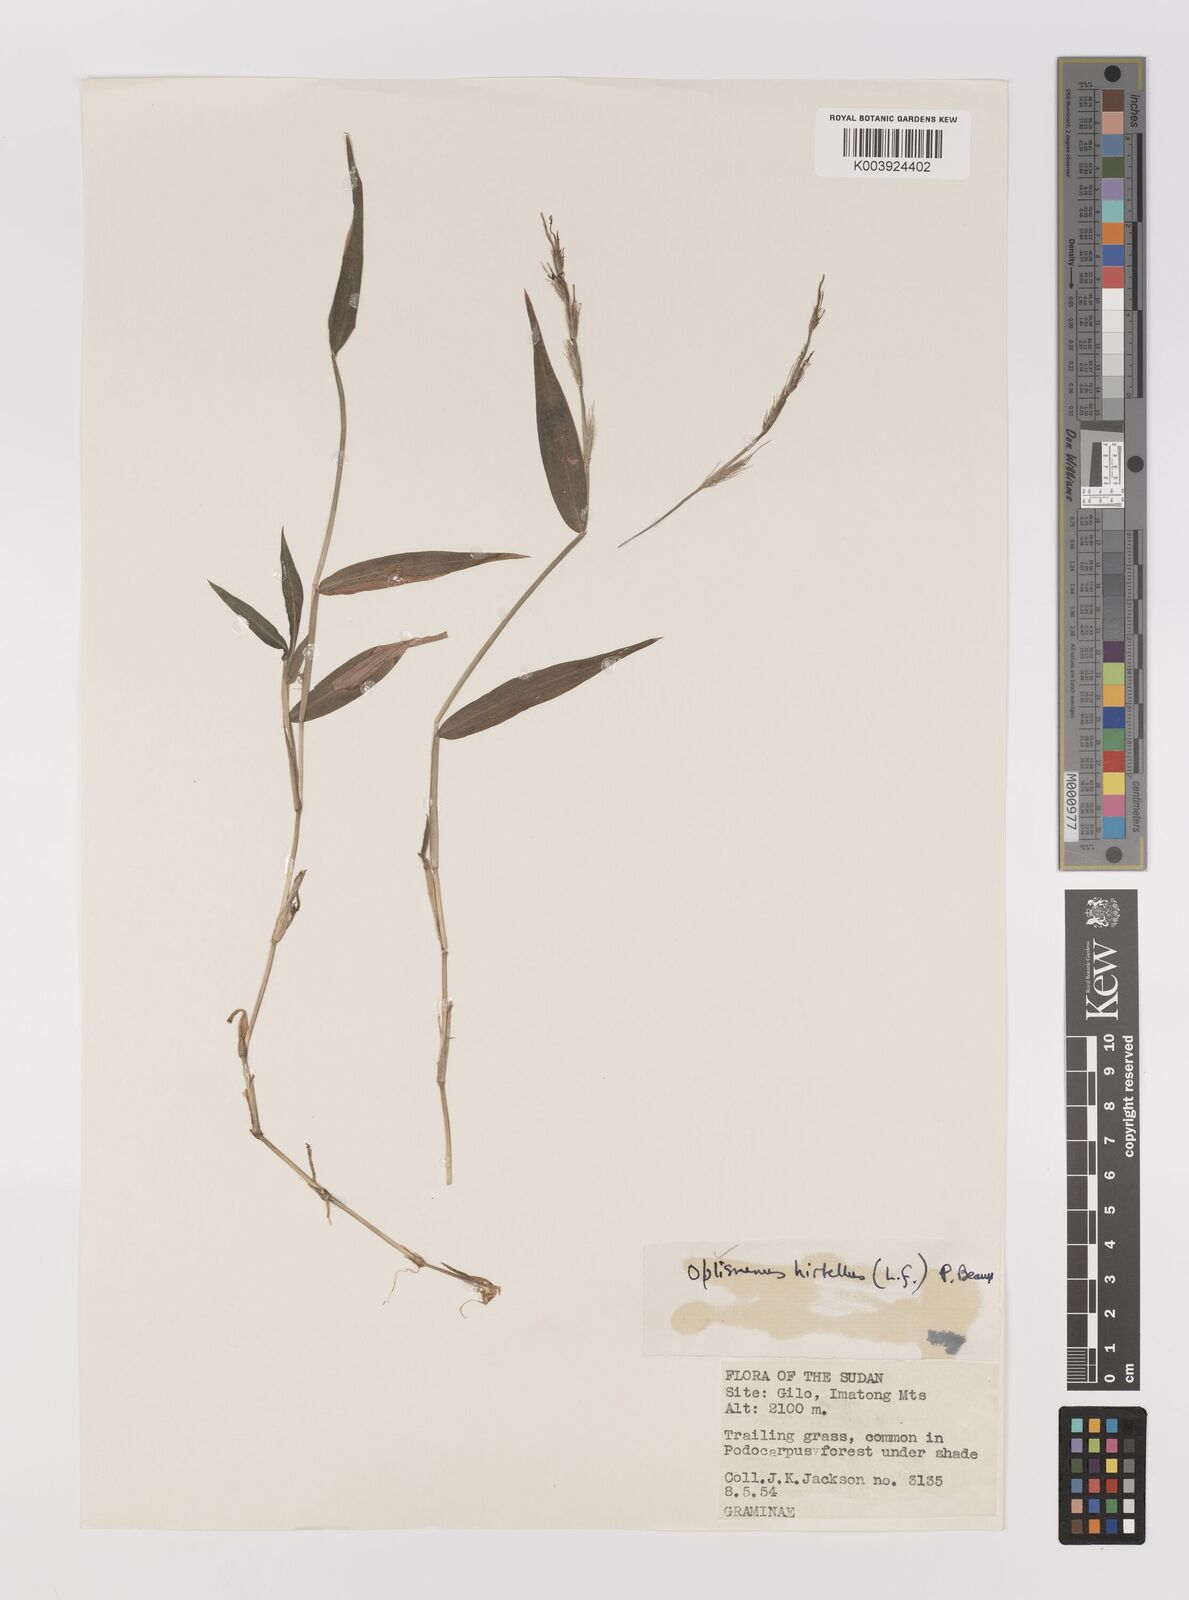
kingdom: Plantae
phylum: Tracheophyta
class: Liliopsida
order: Poales
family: Poaceae
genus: Oplismenus
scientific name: Oplismenus hirtellus
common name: Basketgrass
